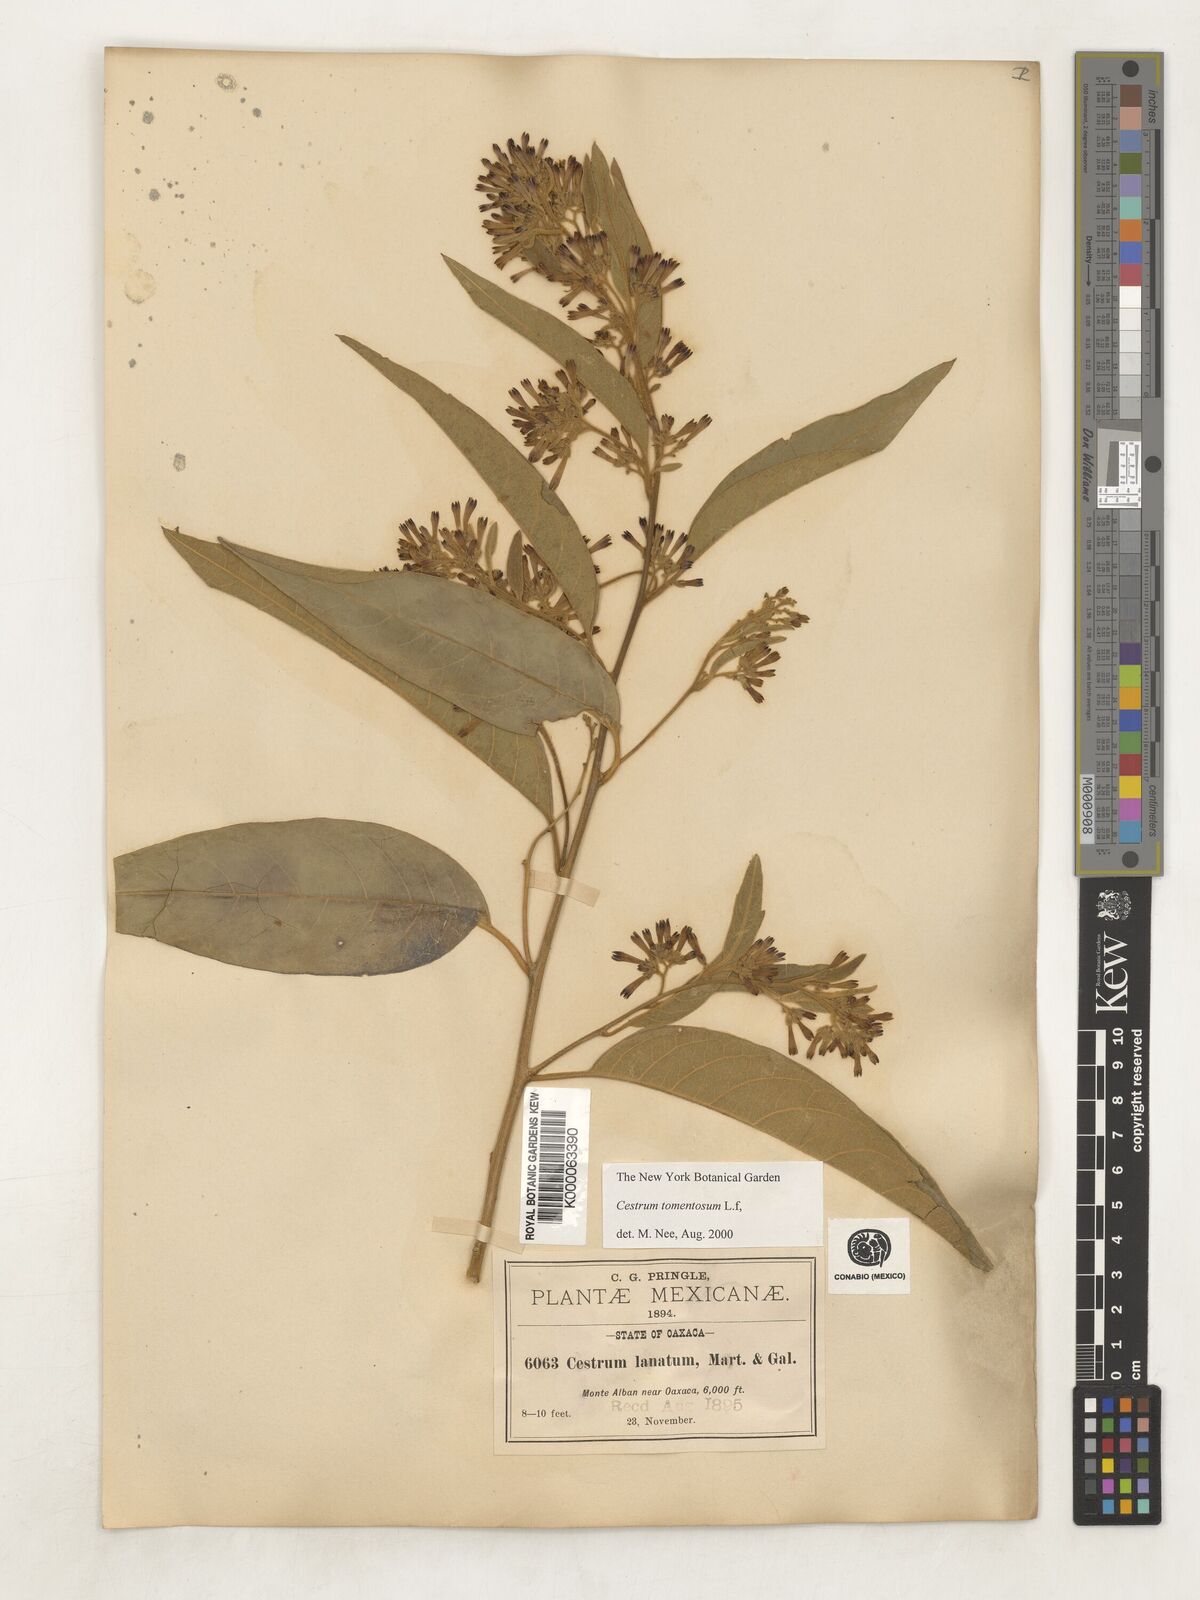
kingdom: Plantae
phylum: Tracheophyta
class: Magnoliopsida
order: Solanales
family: Solanaceae
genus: Cestrum
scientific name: Cestrum tomentosum
